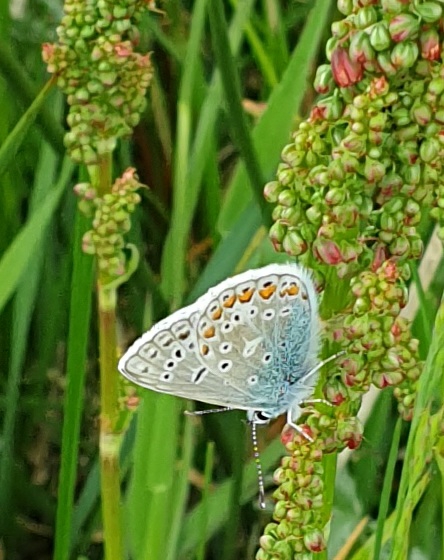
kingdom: Animalia
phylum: Arthropoda
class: Insecta
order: Lepidoptera
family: Lycaenidae
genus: Polyommatus
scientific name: Polyommatus icarus
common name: Almindelig blåfugl
